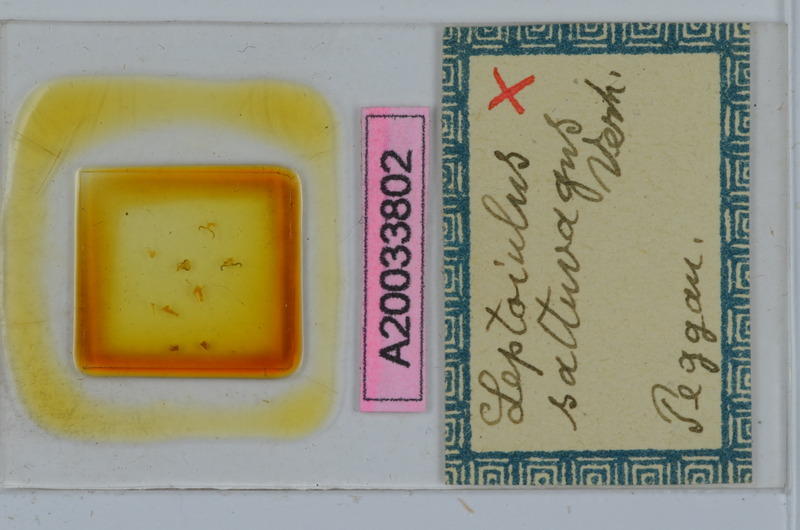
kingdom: Animalia
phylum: Arthropoda
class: Diplopoda
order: Julida
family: Julidae
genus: Leptoiulus
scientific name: Leptoiulus saltuvagus
